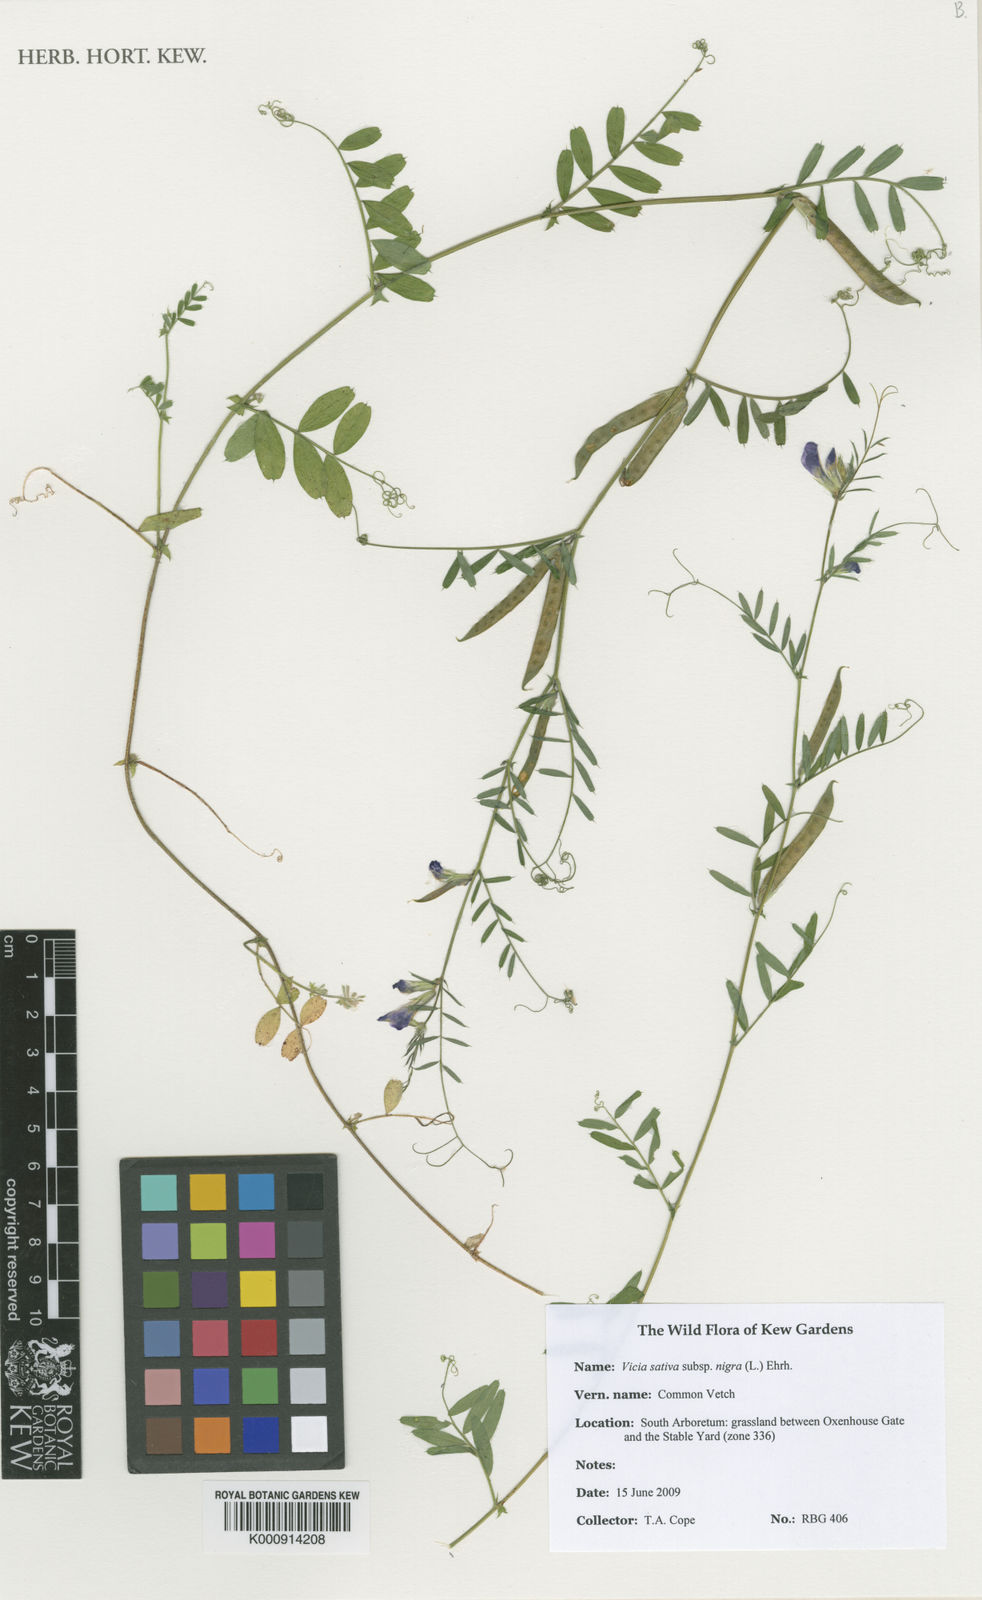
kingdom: Plantae
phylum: Tracheophyta
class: Magnoliopsida
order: Fabales
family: Fabaceae
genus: Vicia
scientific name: Vicia sativa
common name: Garden vetch
